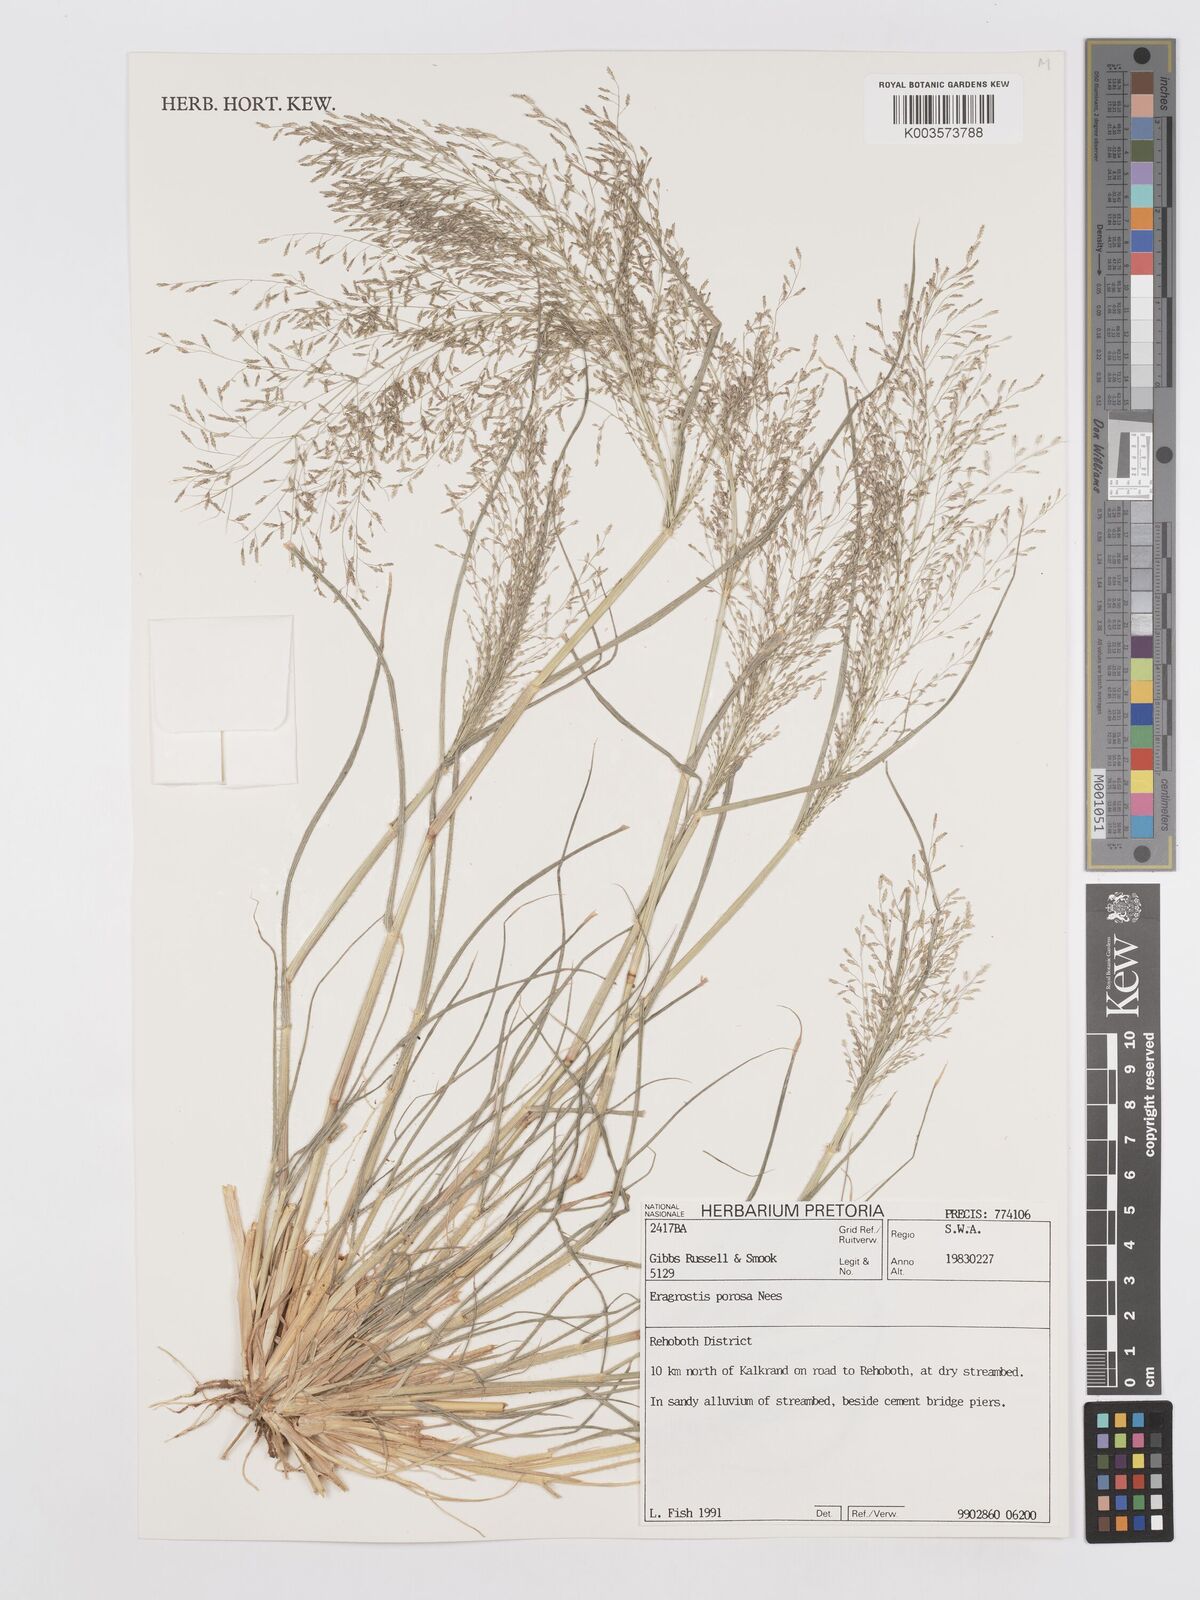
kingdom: Plantae
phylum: Tracheophyta
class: Liliopsida
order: Poales
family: Poaceae
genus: Eragrostis
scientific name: Eragrostis porosa
